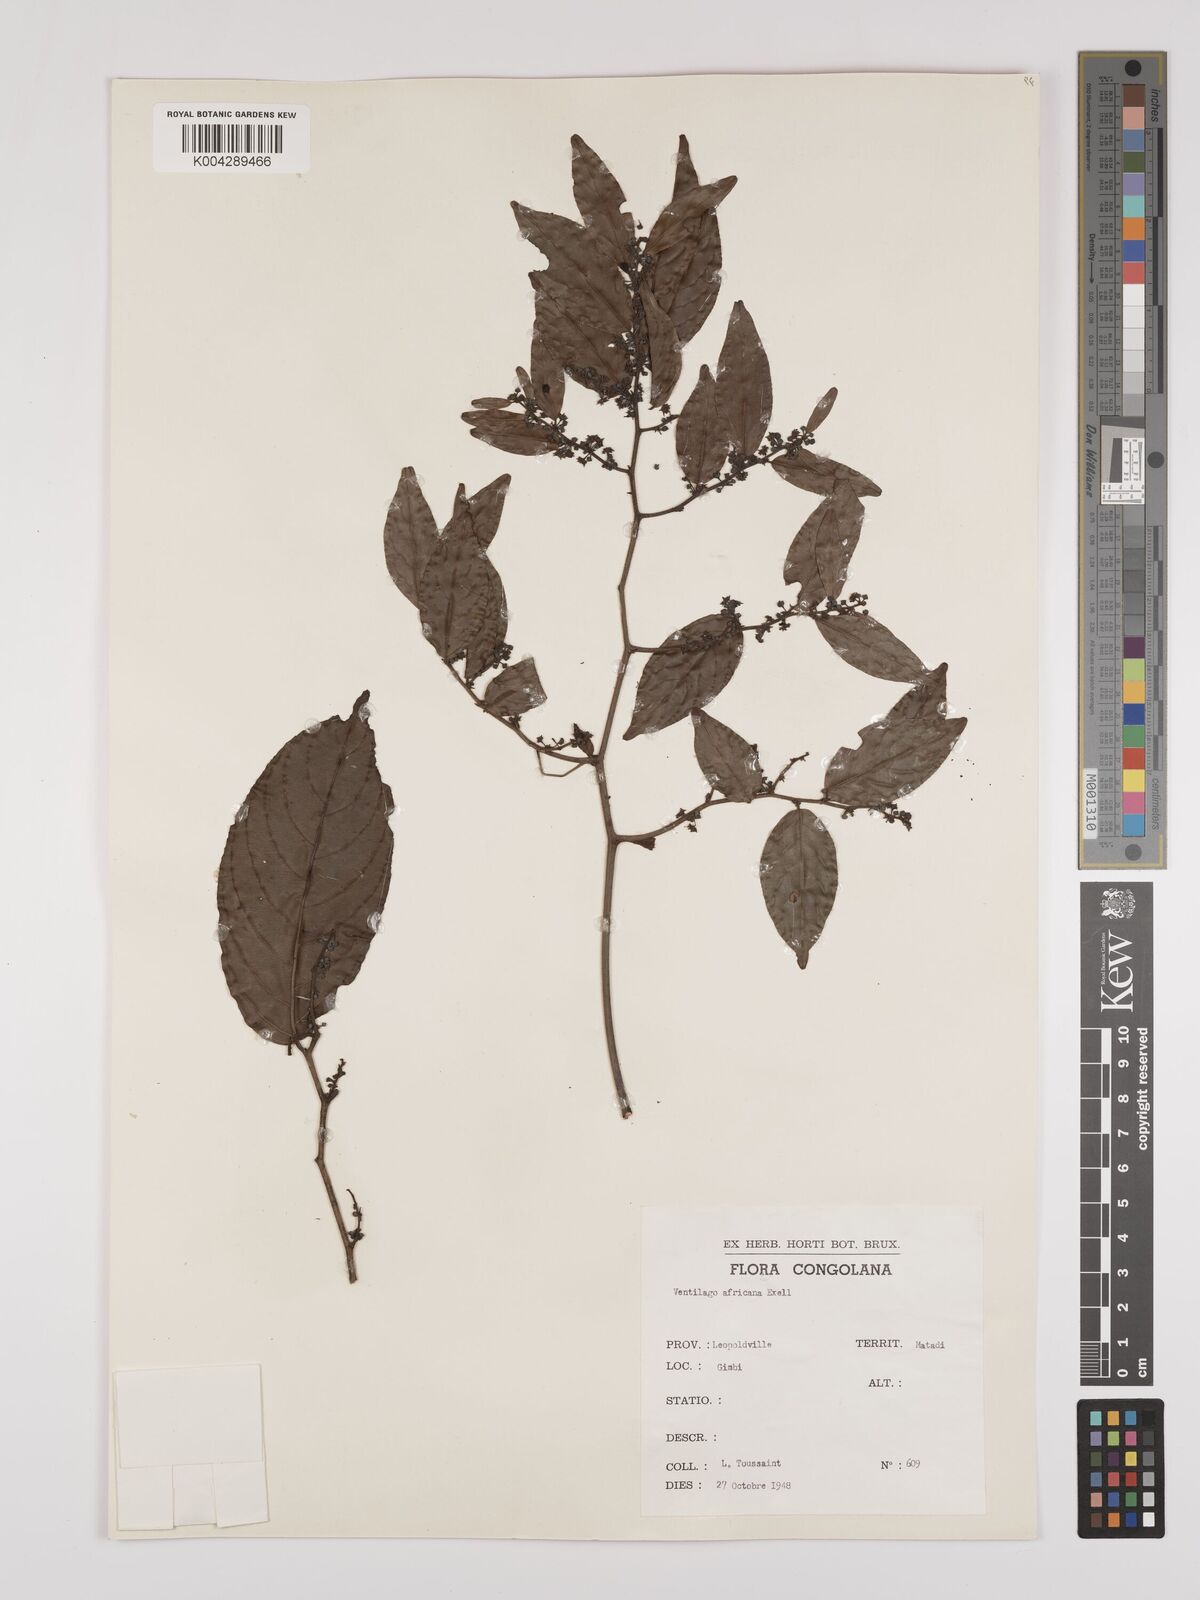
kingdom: Plantae
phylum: Tracheophyta
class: Magnoliopsida
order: Rosales
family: Rhamnaceae
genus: Ventilago
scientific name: Ventilago africana
